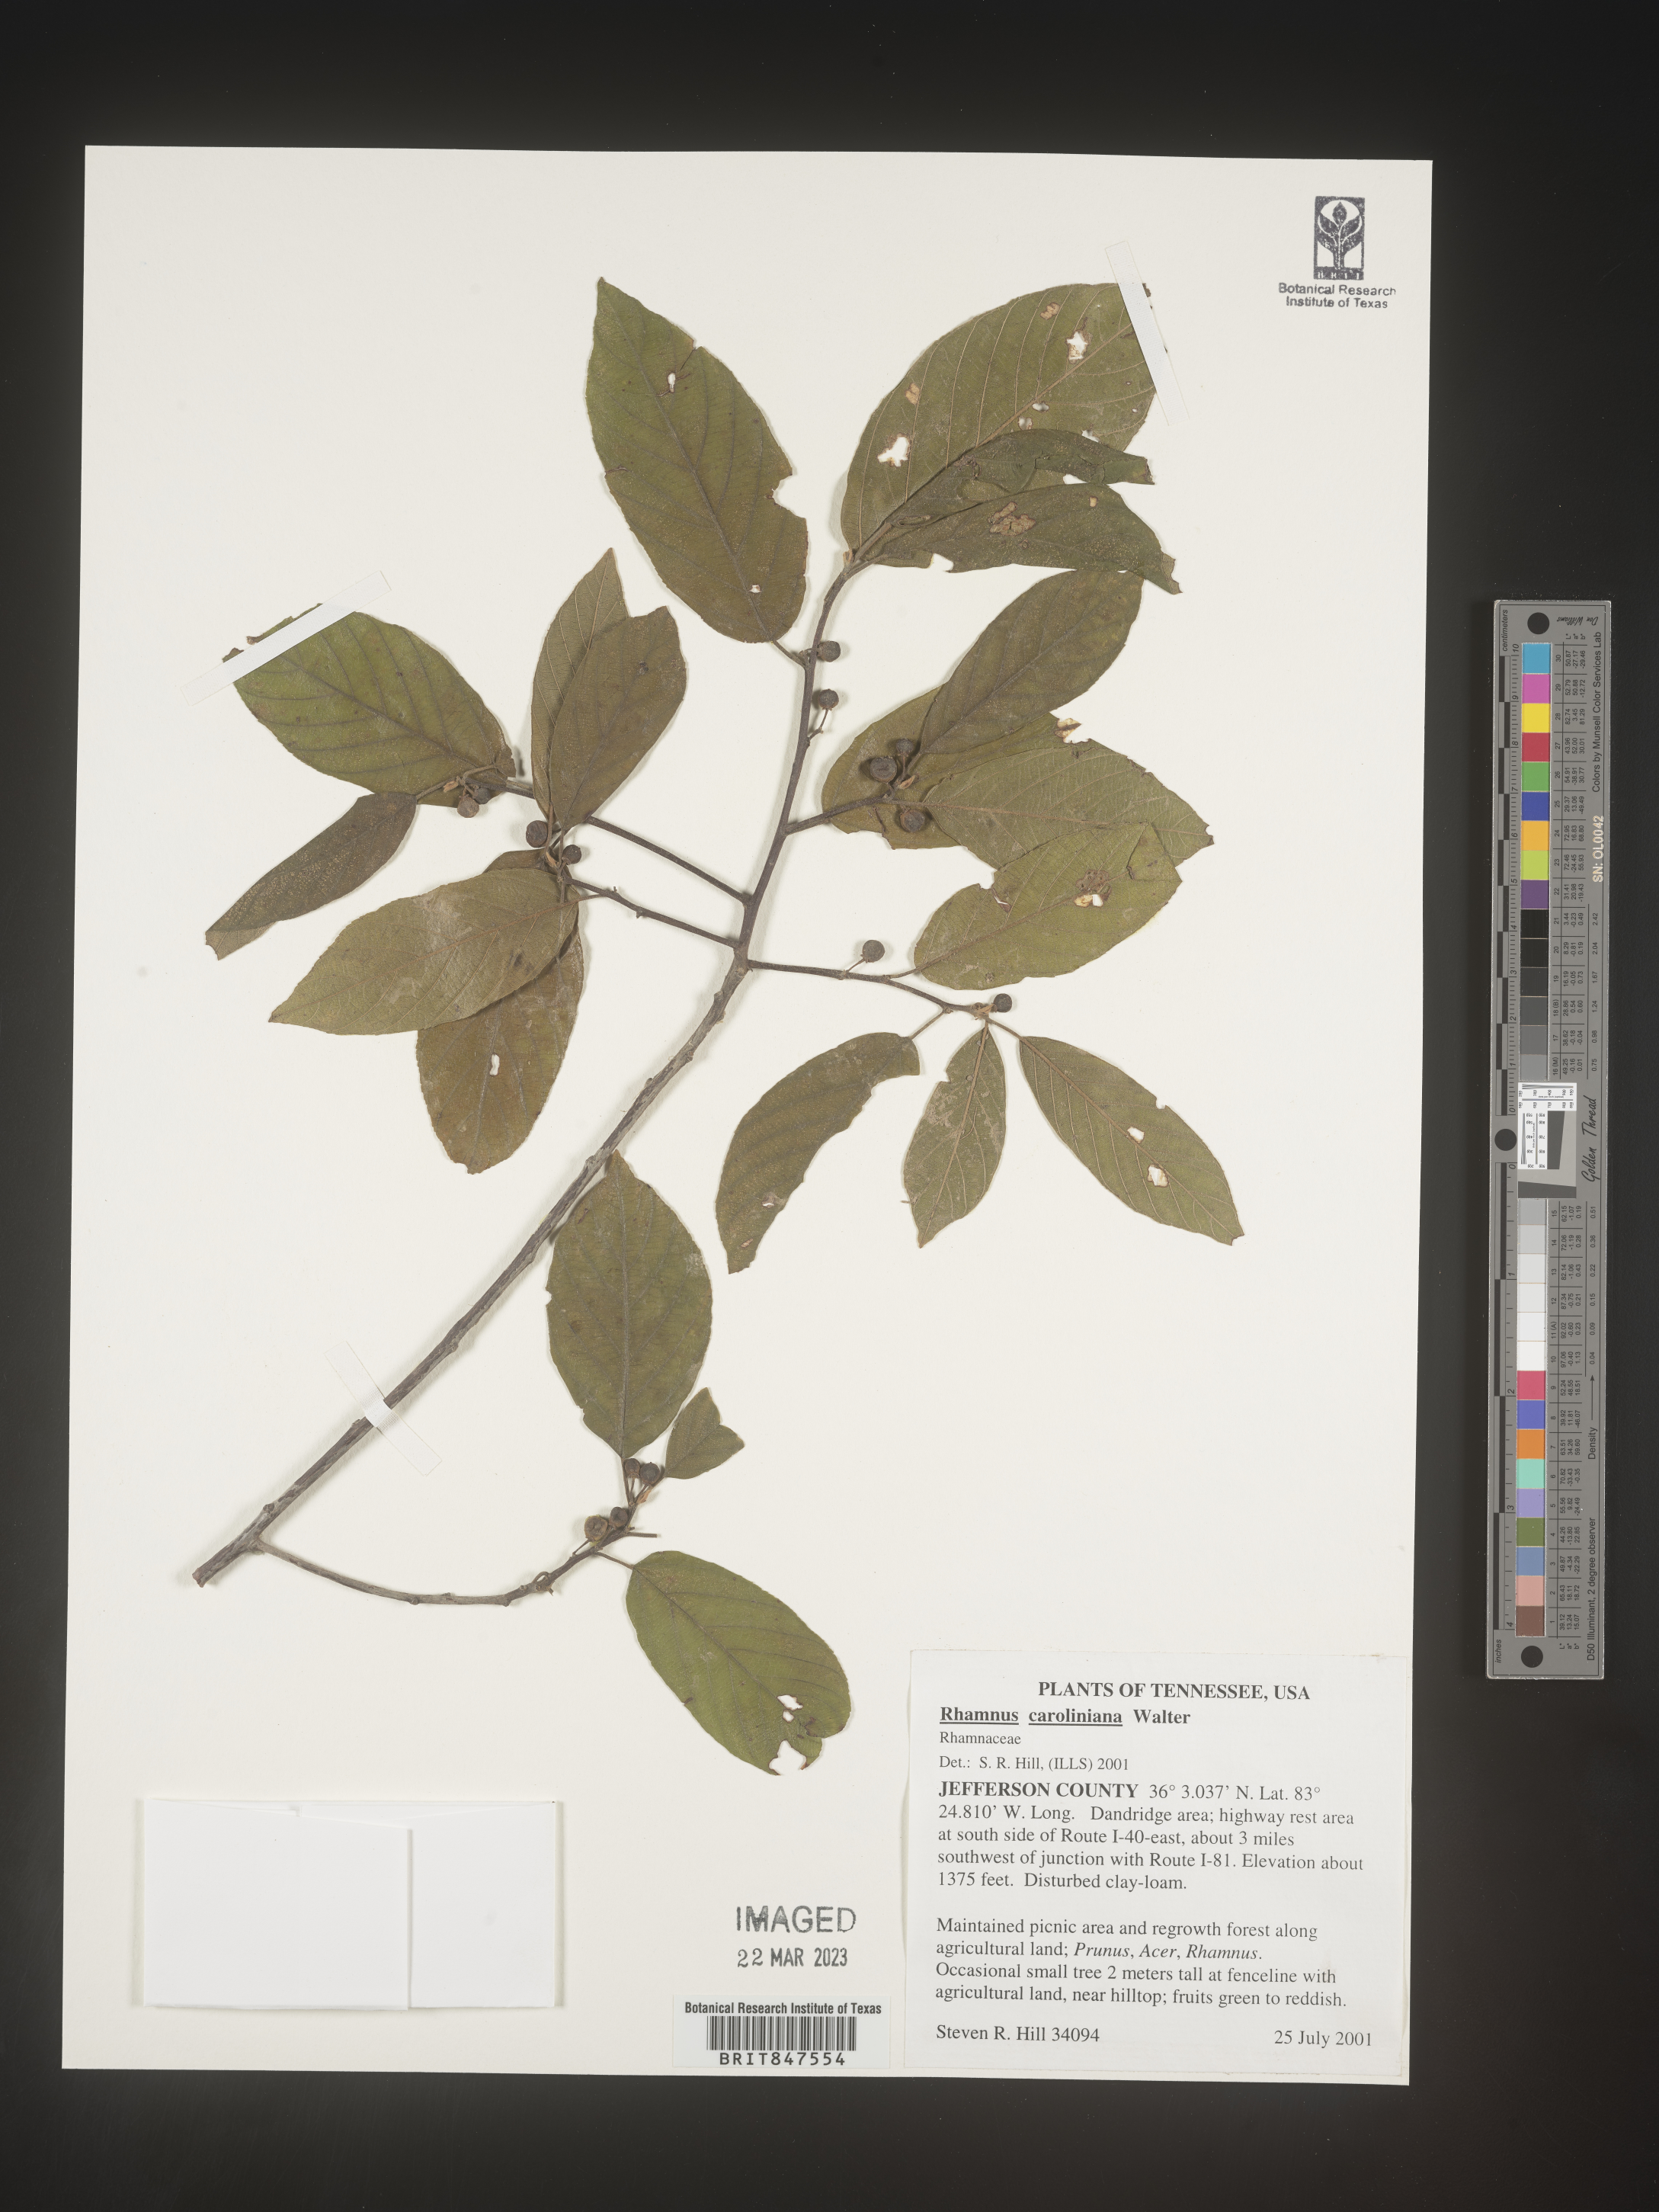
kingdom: Plantae
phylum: Tracheophyta
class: Magnoliopsida
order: Rosales
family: Rhamnaceae
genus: Frangula
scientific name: Frangula caroliniana
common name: Carolina buckthorn
